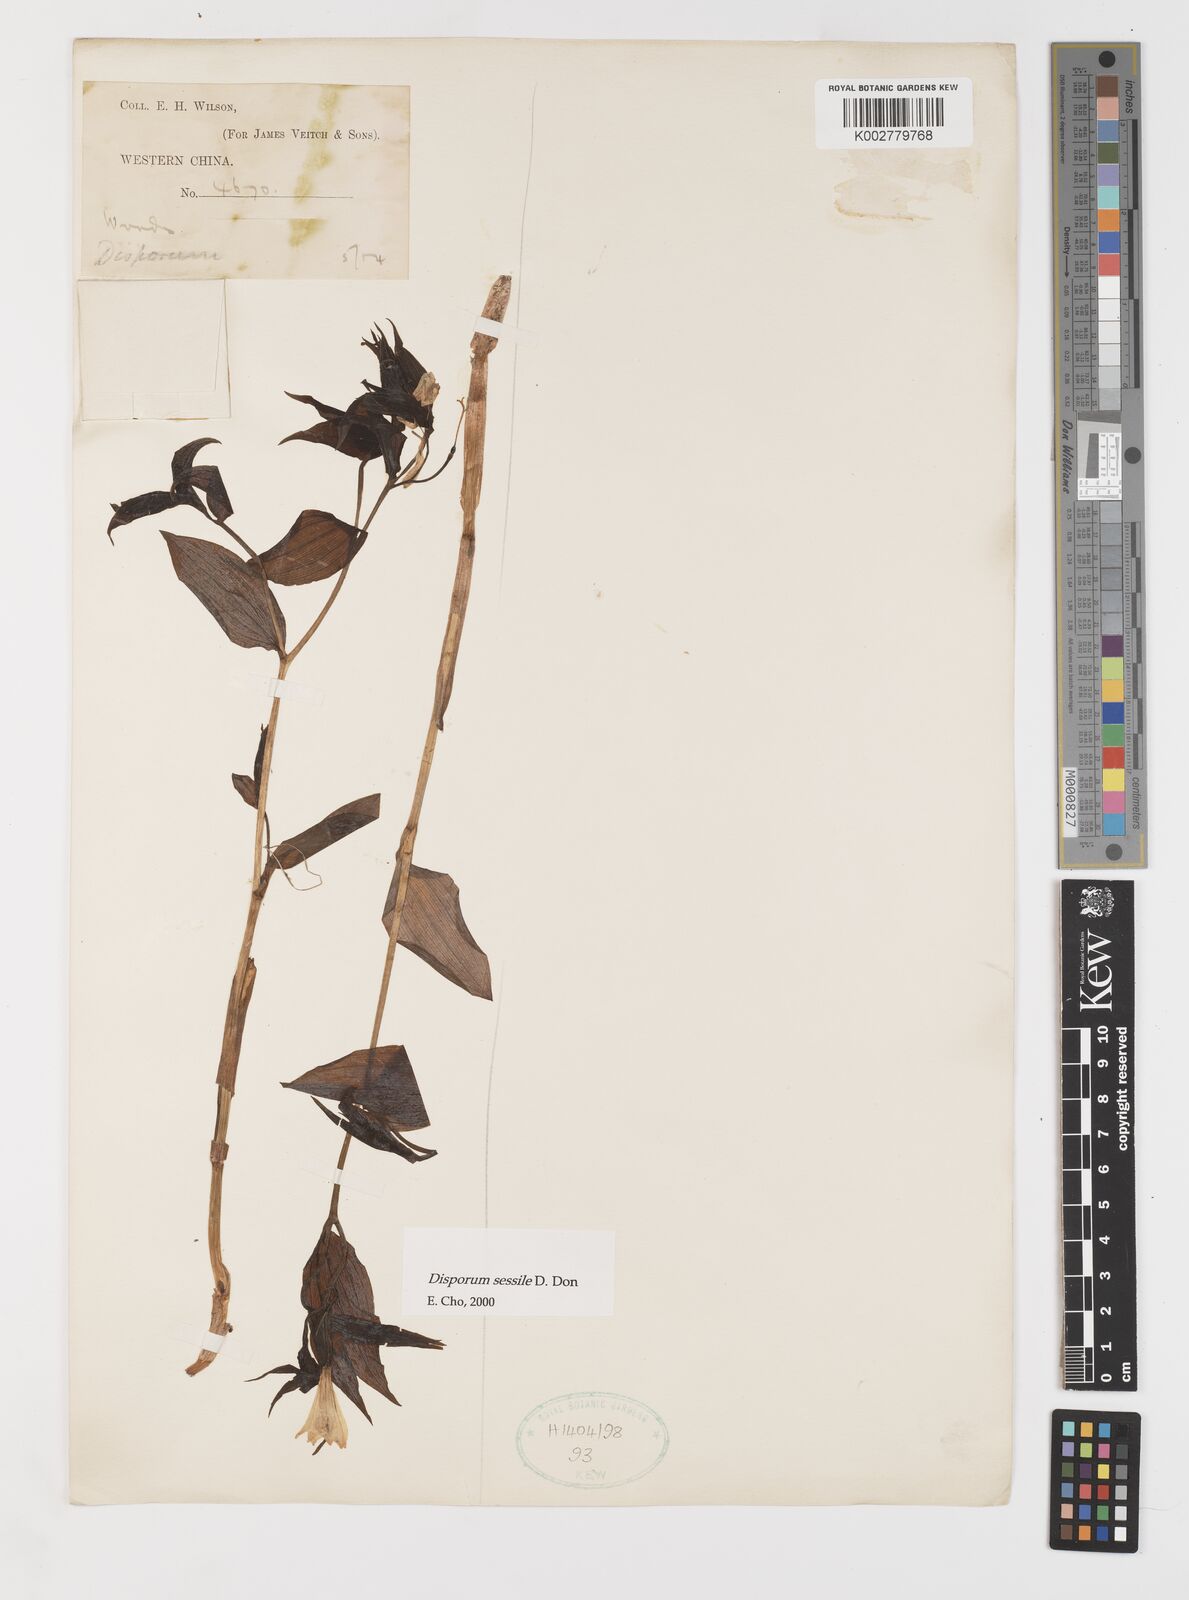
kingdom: Plantae
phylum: Tracheophyta
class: Liliopsida
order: Liliales
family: Colchicaceae
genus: Disporum
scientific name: Disporum sessile
